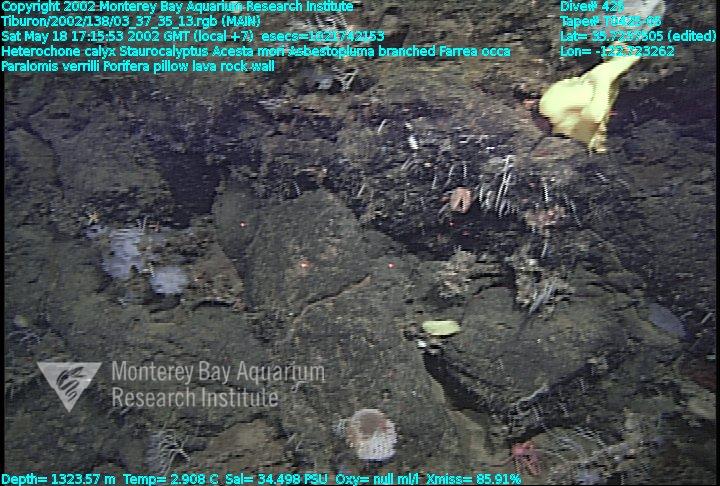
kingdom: Animalia
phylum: Porifera
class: Demospongiae
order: Poecilosclerida
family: Cladorhizidae
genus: Asbestopluma
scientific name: Asbestopluma monticola
